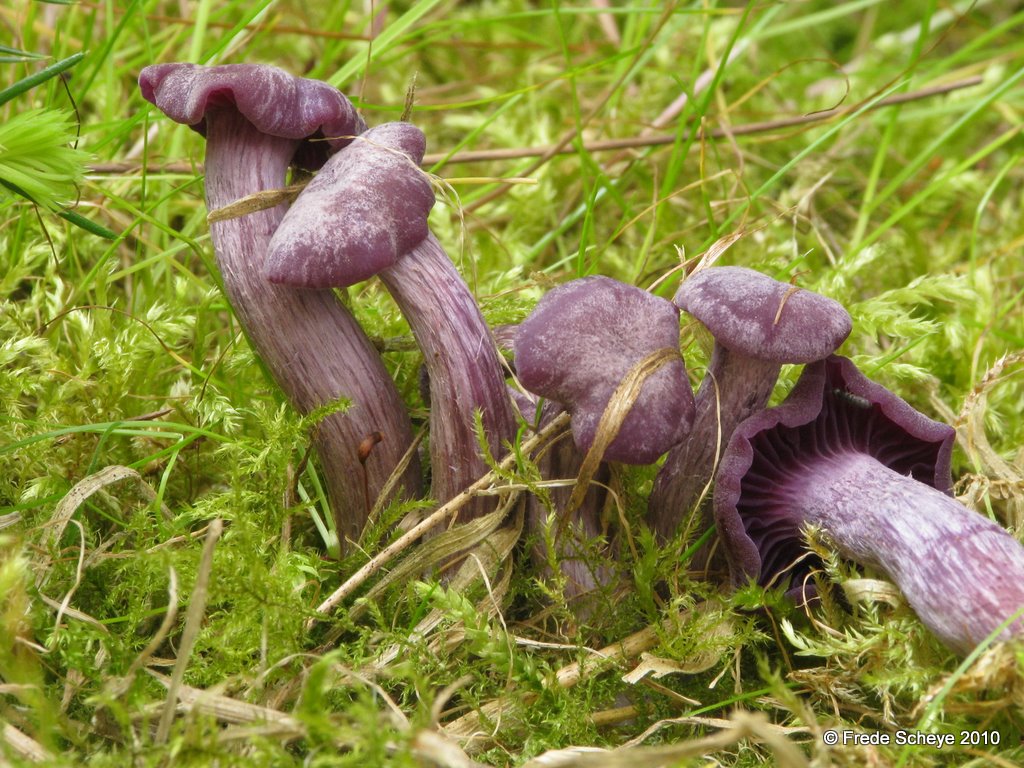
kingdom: Fungi
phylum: Basidiomycota
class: Agaricomycetes
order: Agaricales
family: Hydnangiaceae
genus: Laccaria
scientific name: Laccaria amethystina
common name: violet ametysthat
